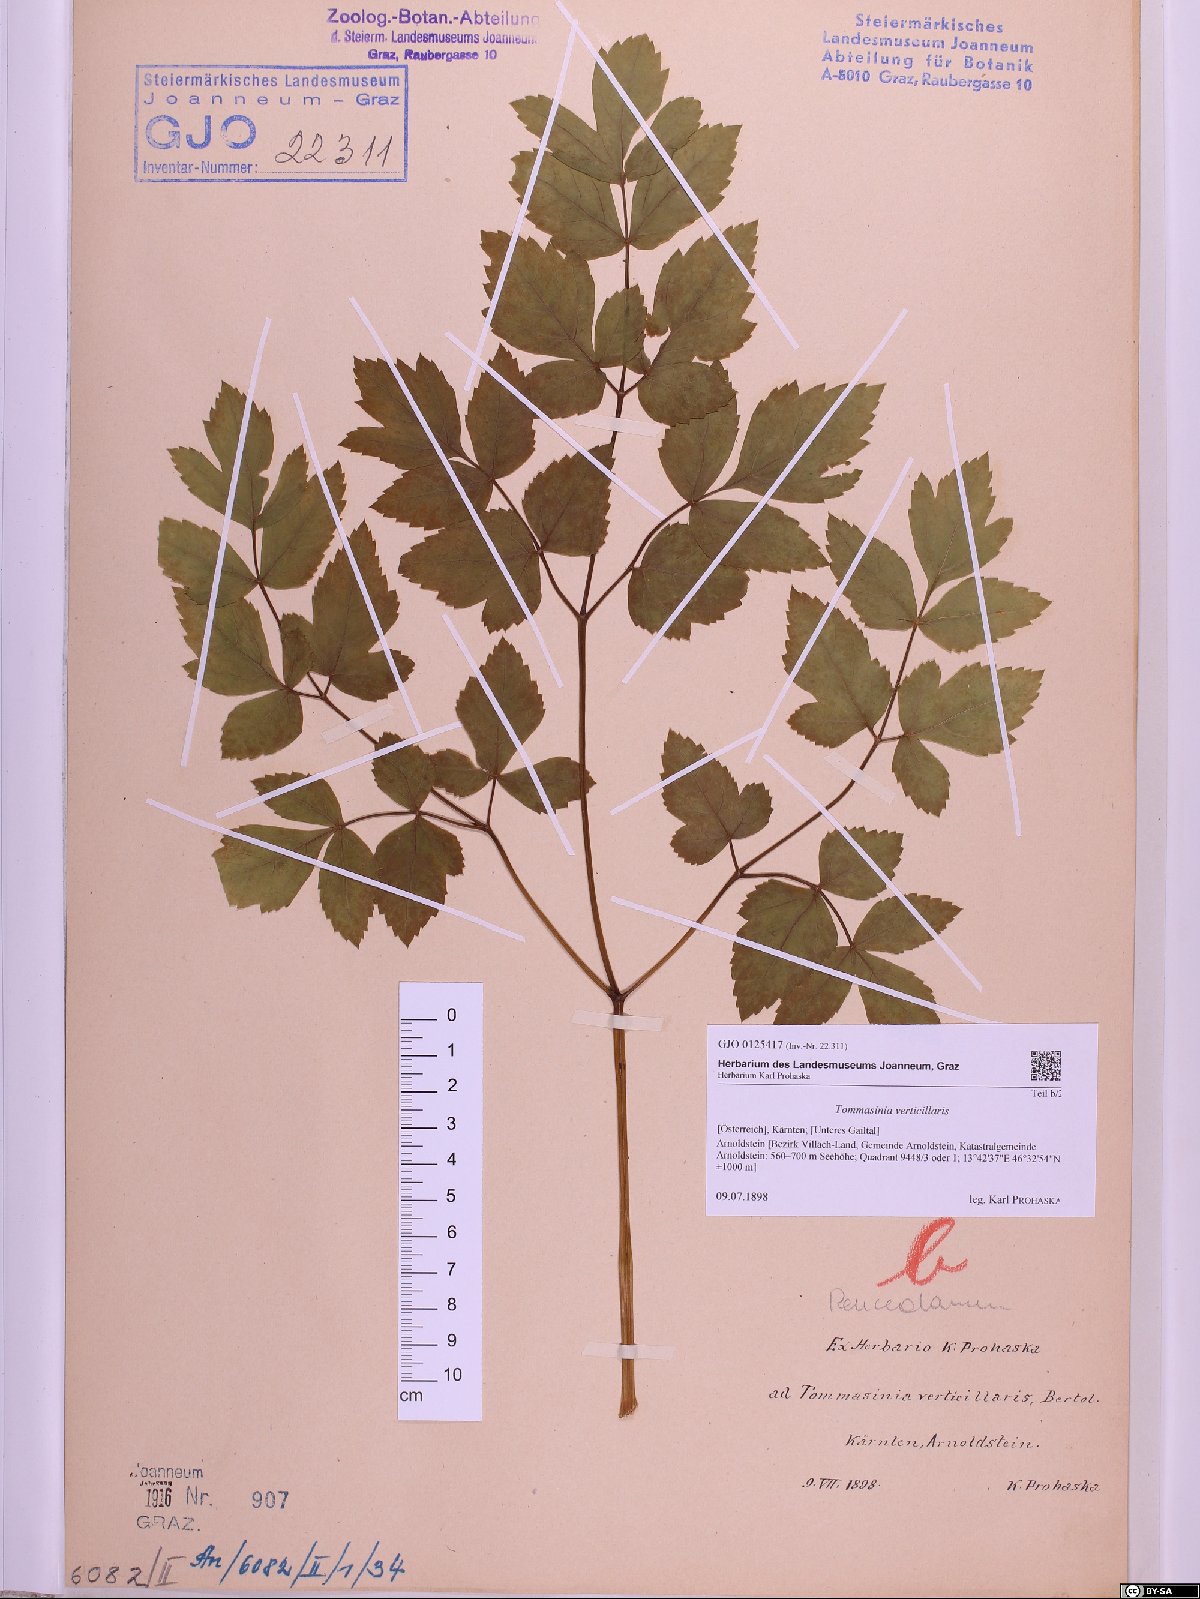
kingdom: Plantae
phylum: Tracheophyta
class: Magnoliopsida
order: Apiales
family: Apiaceae
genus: Tommasinia
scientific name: Tommasinia altissima
